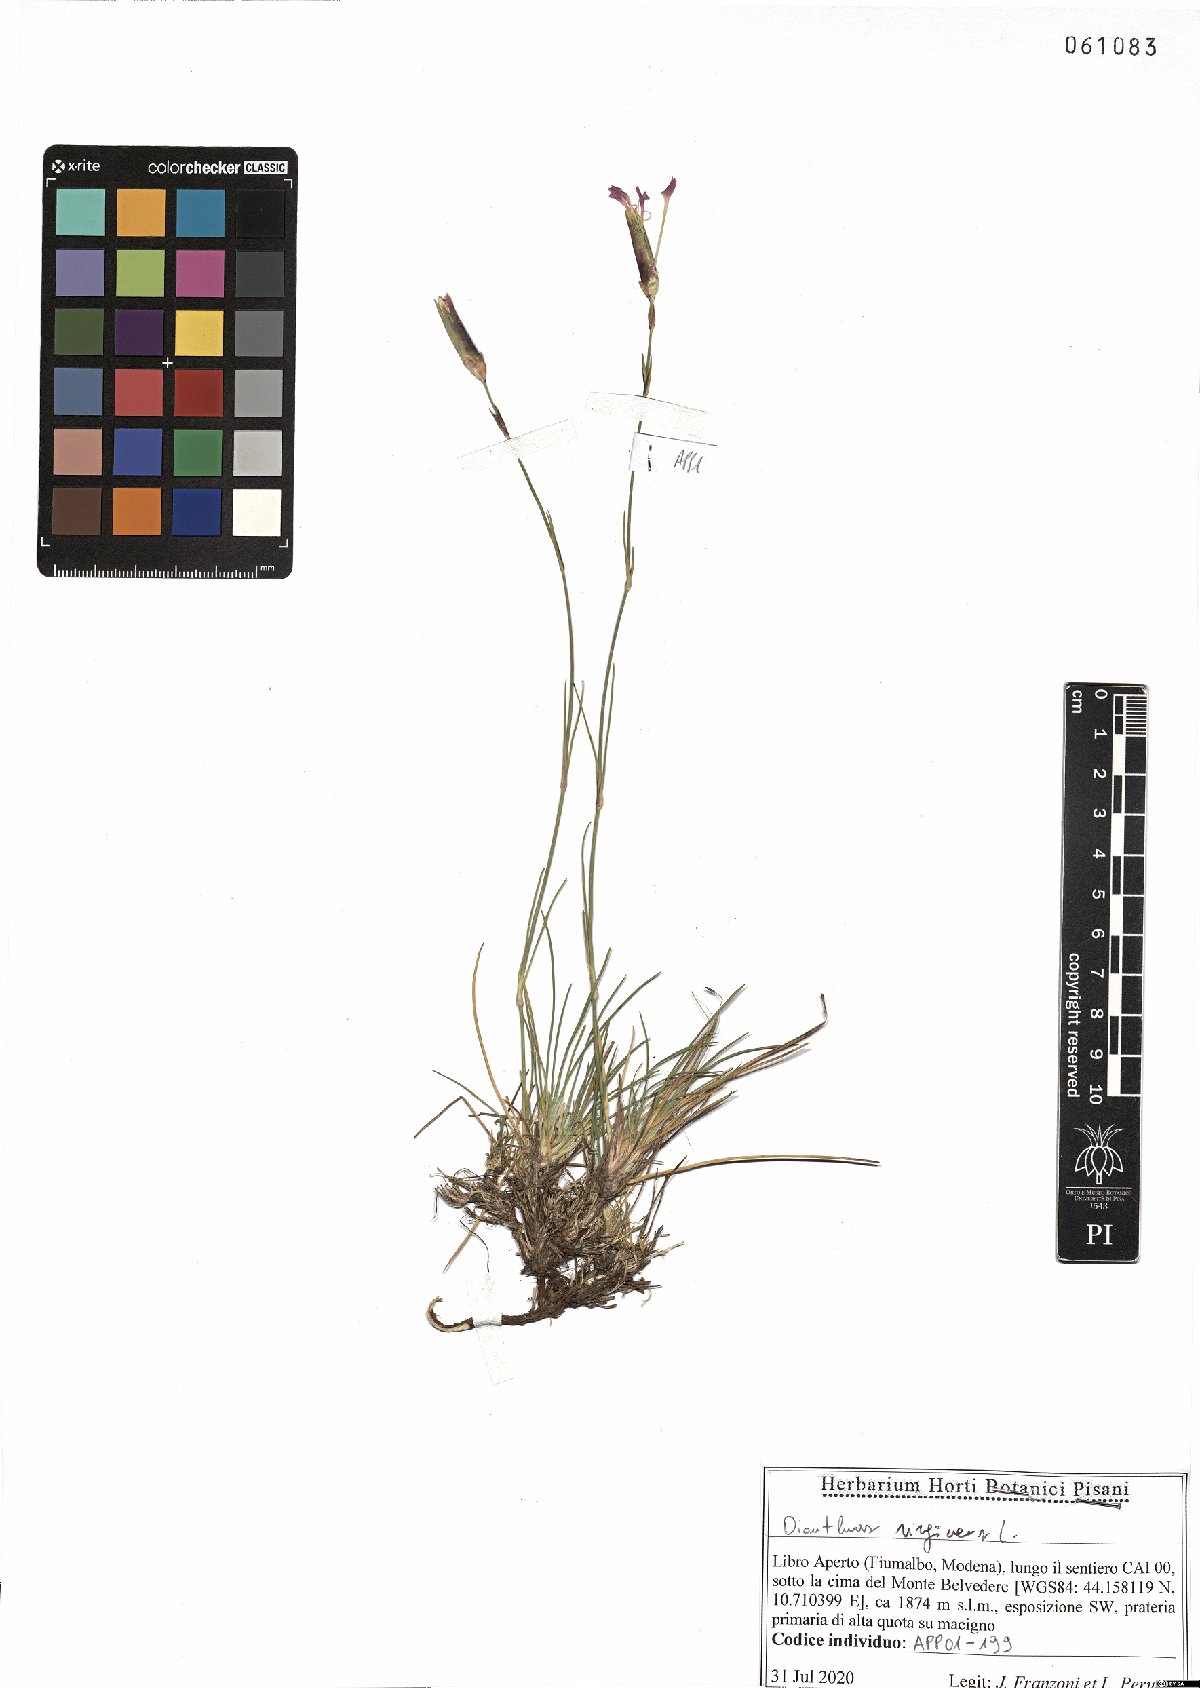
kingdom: Plantae
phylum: Tracheophyta
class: Magnoliopsida
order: Caryophyllales
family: Caryophyllaceae
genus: Dianthus
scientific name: Dianthus virgineus
